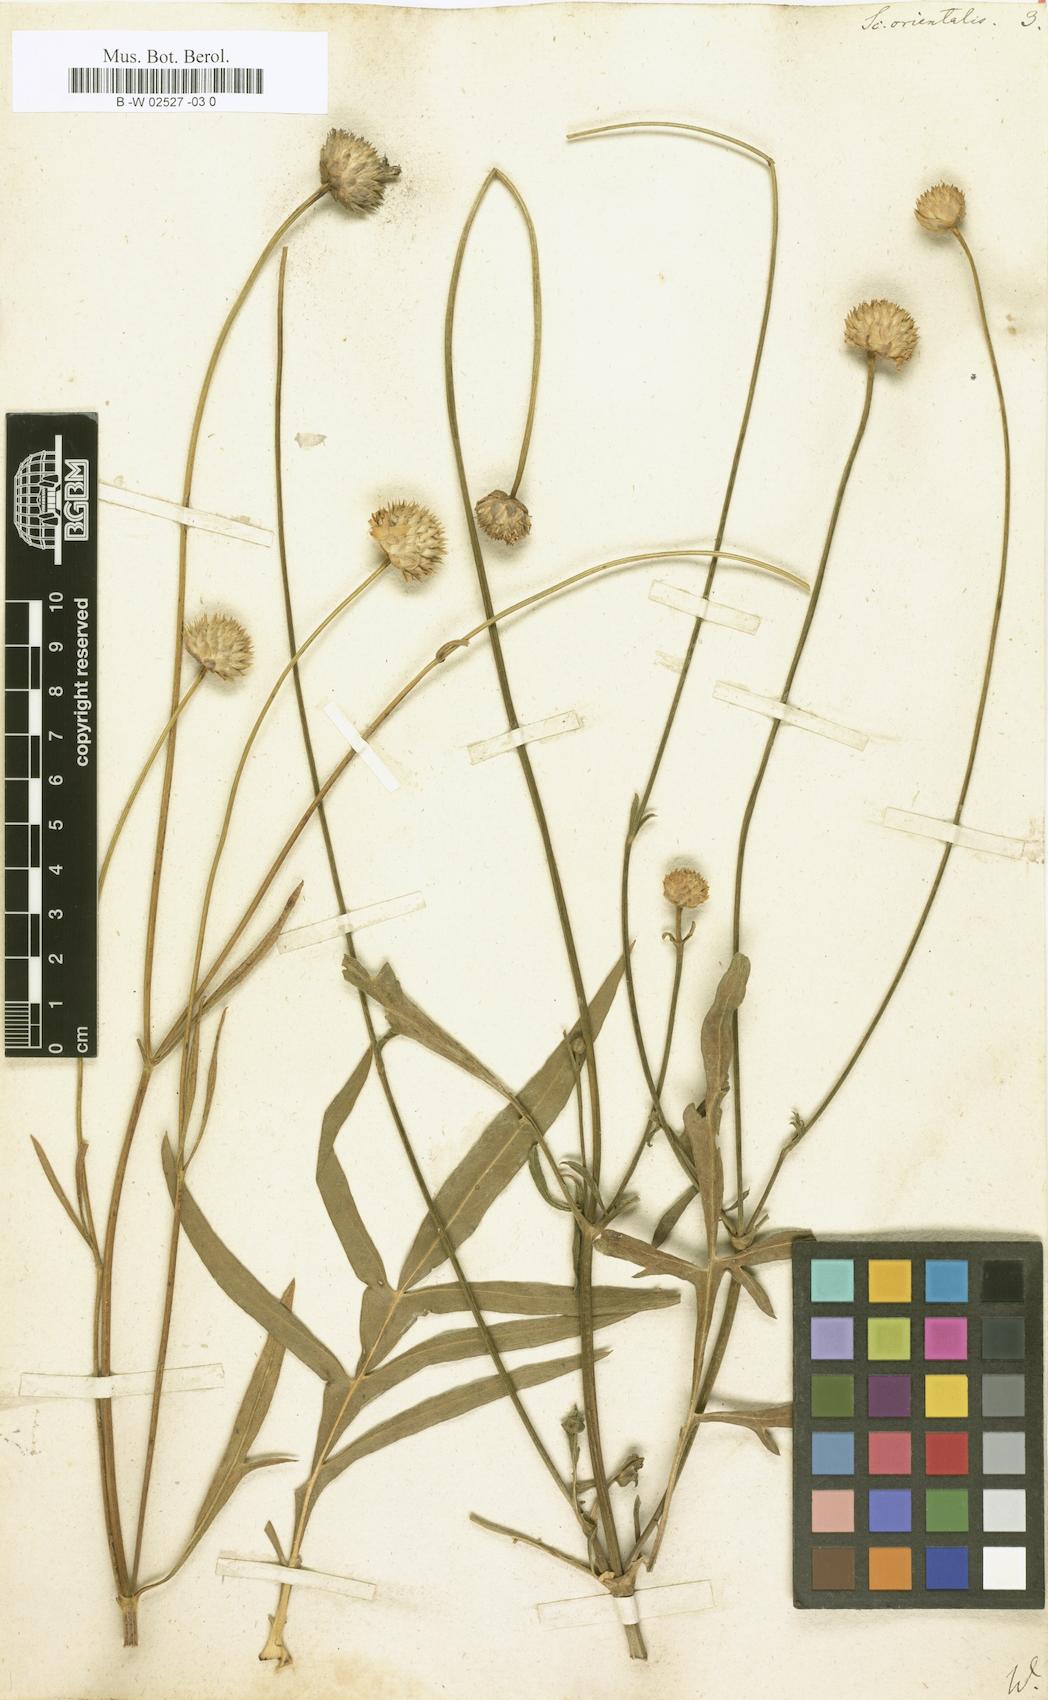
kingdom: Plantae
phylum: Tracheophyta
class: Magnoliopsida
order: Dipsacales
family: Caprifoliaceae
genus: Knautia
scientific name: Knautia orientalis
